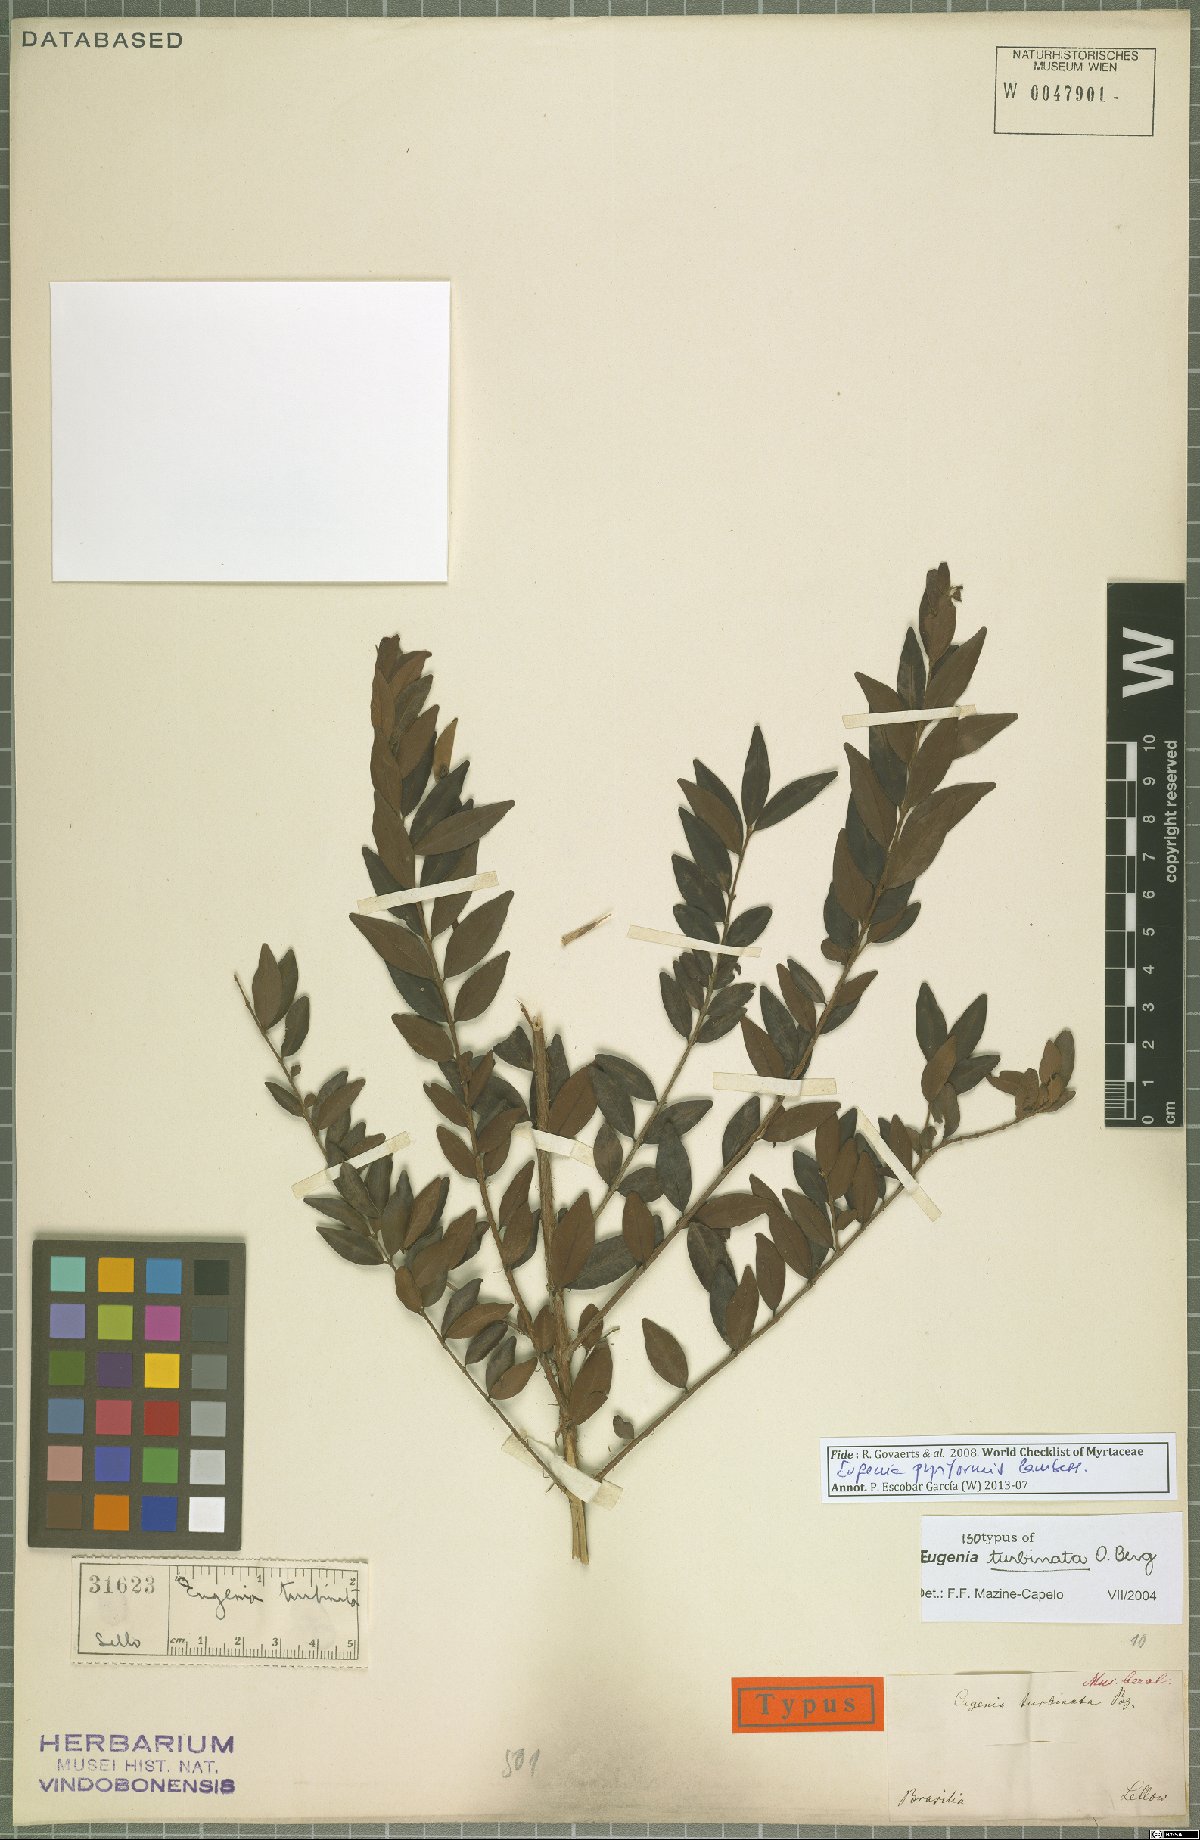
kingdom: Plantae
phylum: Tracheophyta
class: Magnoliopsida
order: Myrtales
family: Myrtaceae
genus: Eugenia
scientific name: Eugenia pyriformis
